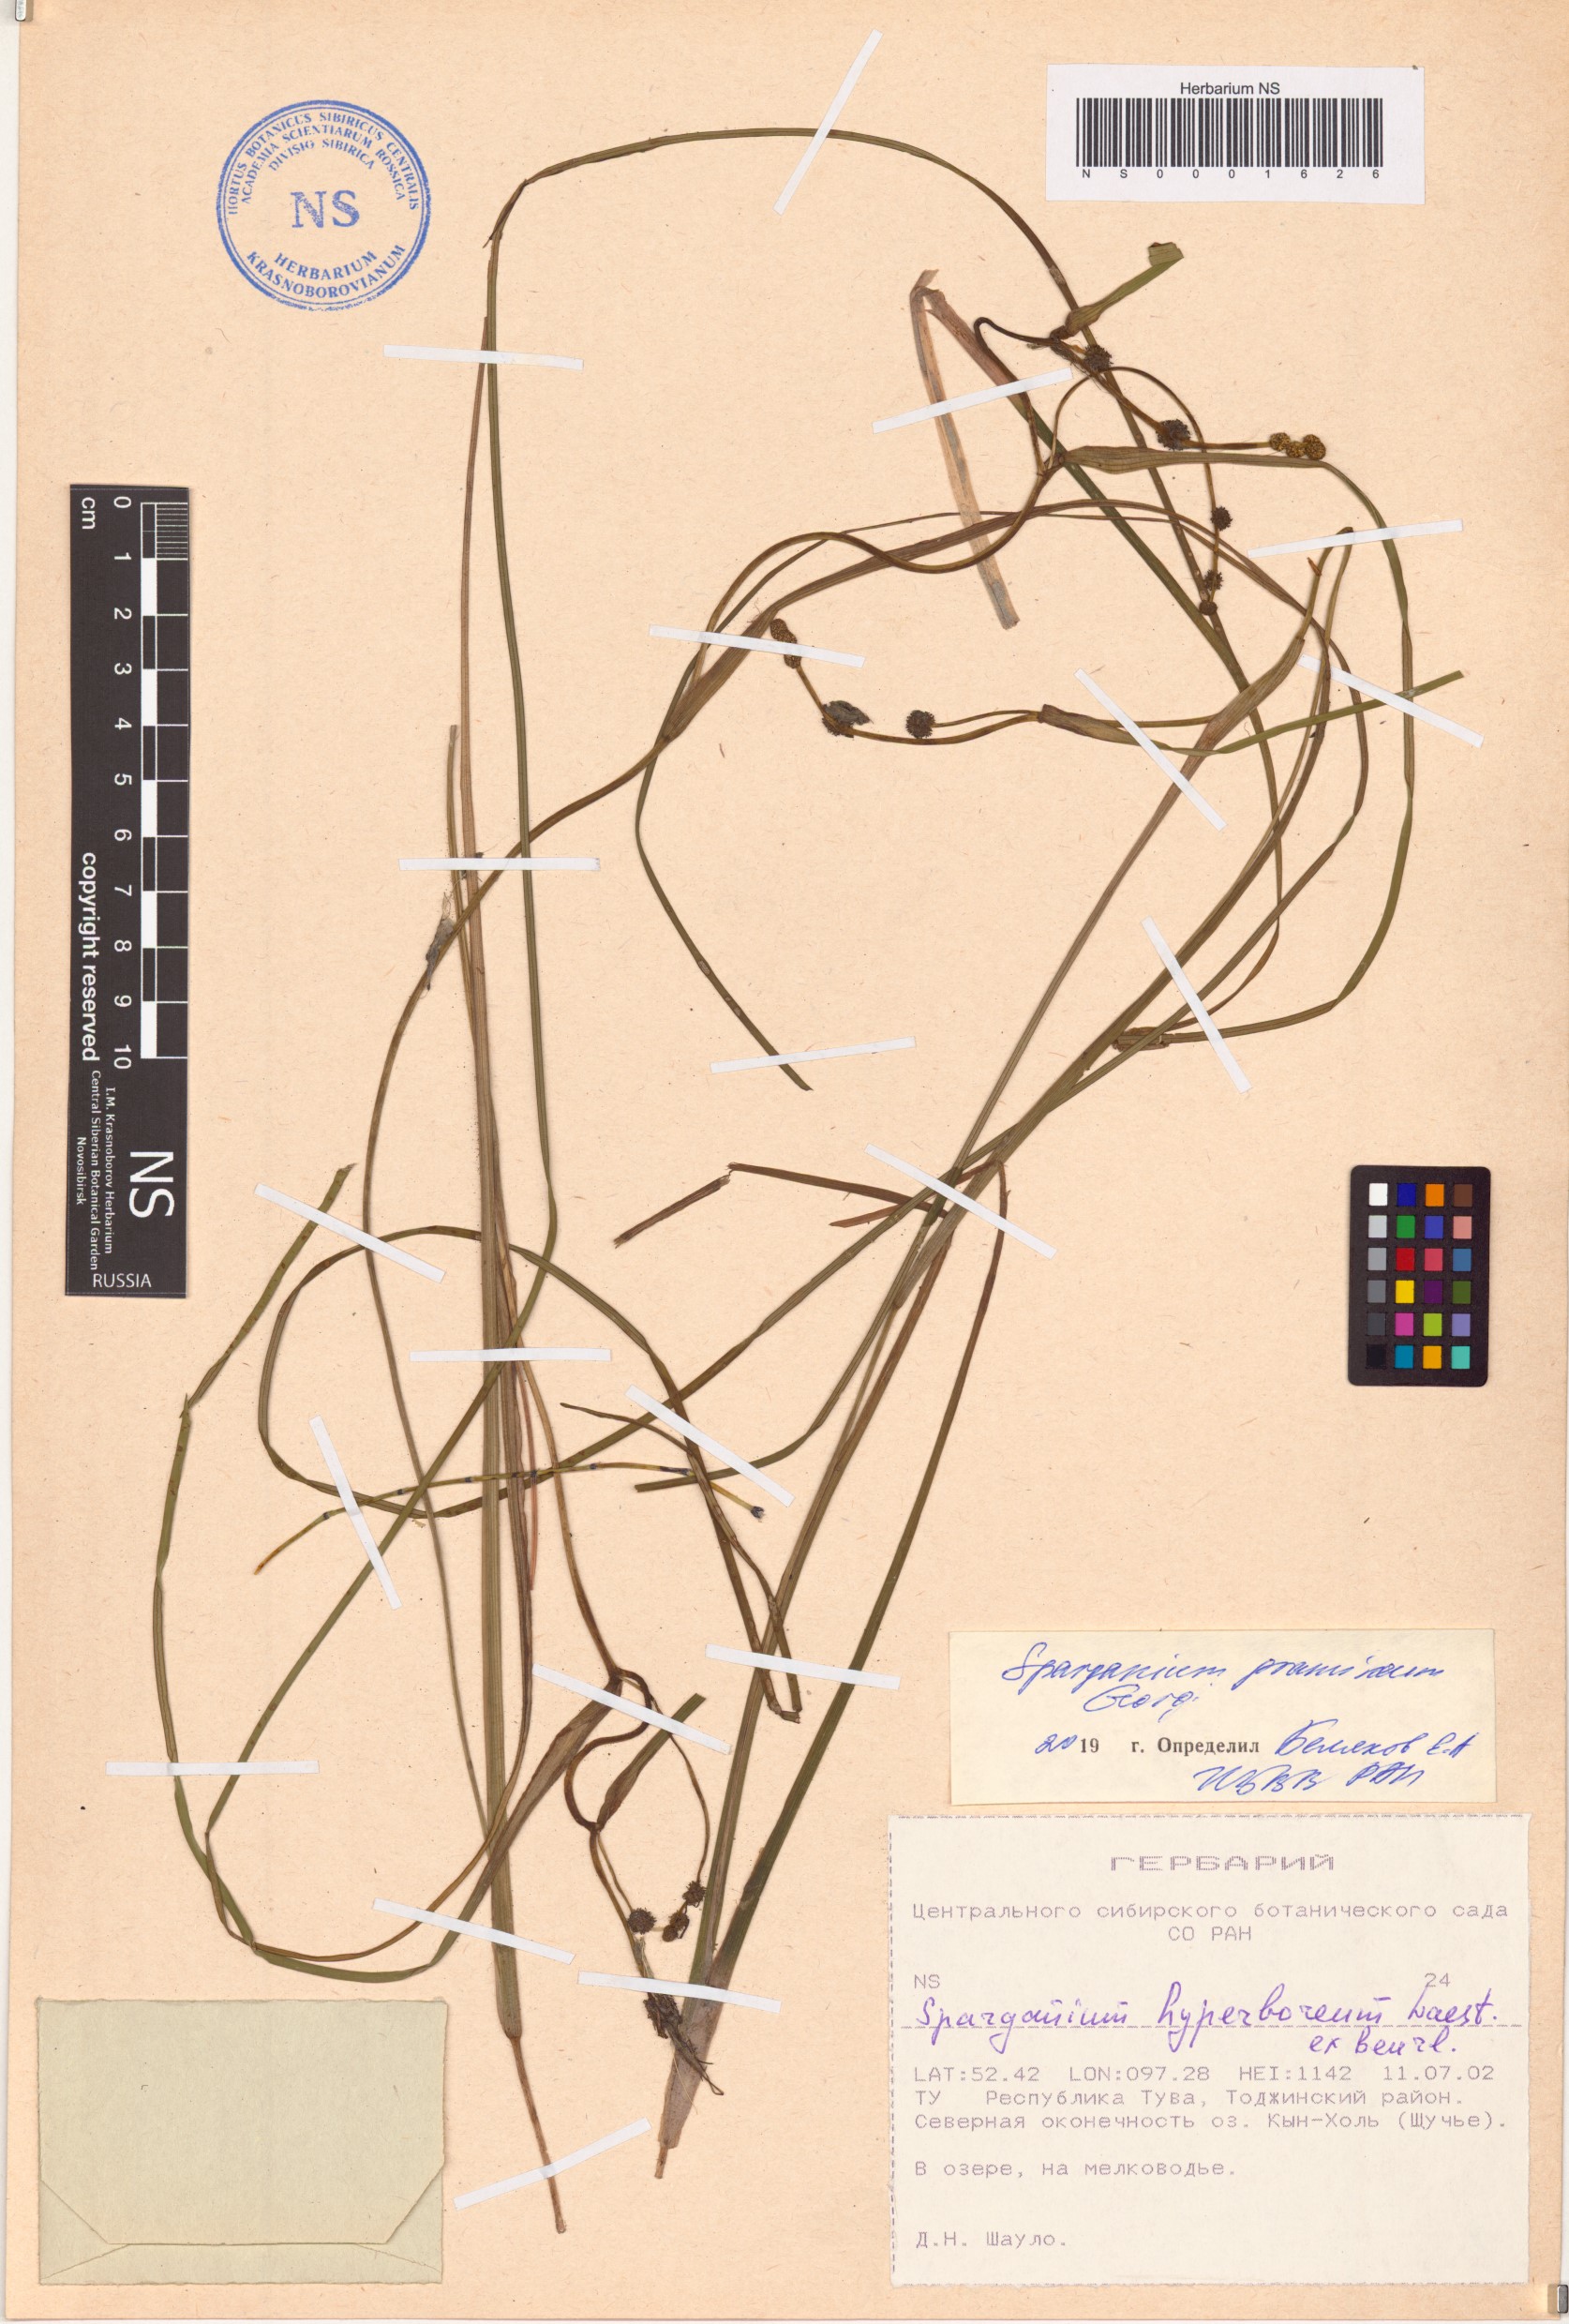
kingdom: Plantae
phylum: Tracheophyta
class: Liliopsida
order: Poales
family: Typhaceae
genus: Sparganium
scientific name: Sparganium gramineum
